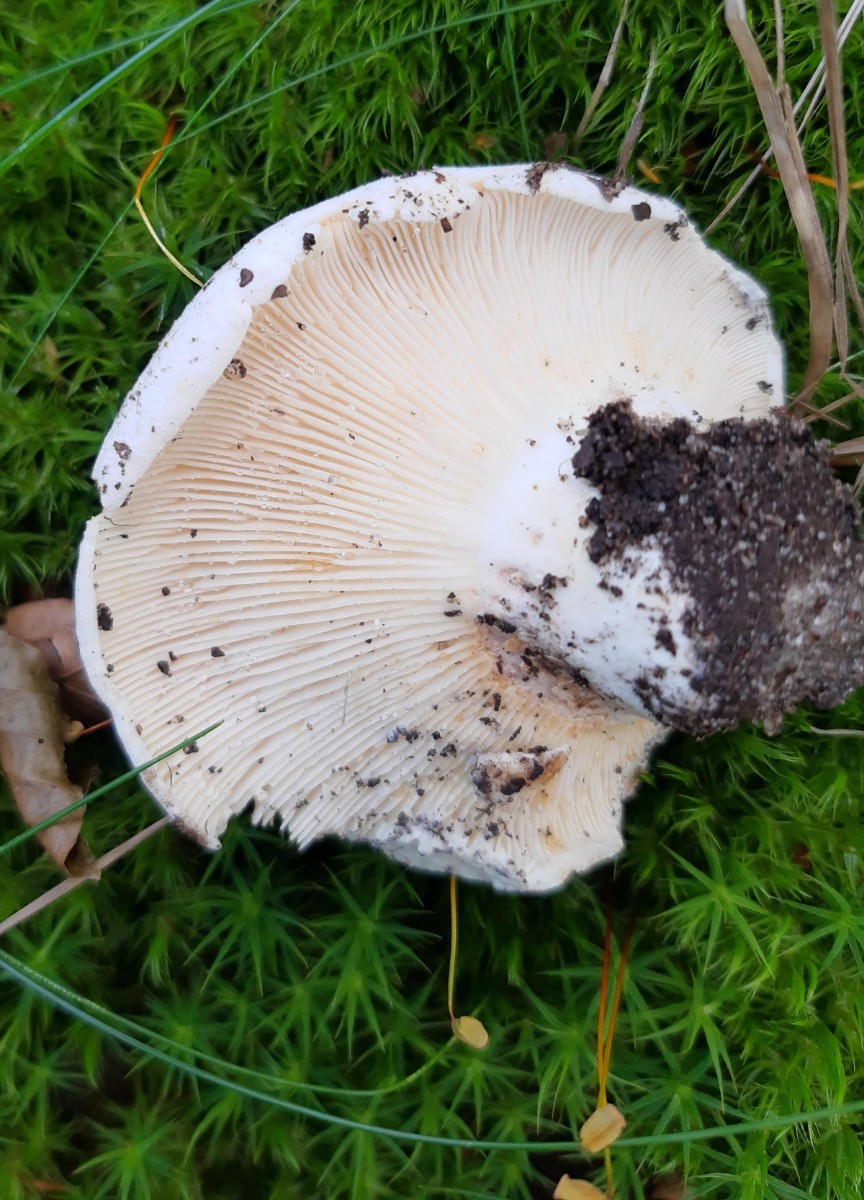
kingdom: Fungi
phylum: Basidiomycota
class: Agaricomycetes
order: Russulales
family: Russulaceae
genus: Lactifluus
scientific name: Lactifluus bertillonii
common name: blødfiltet mælkehat
